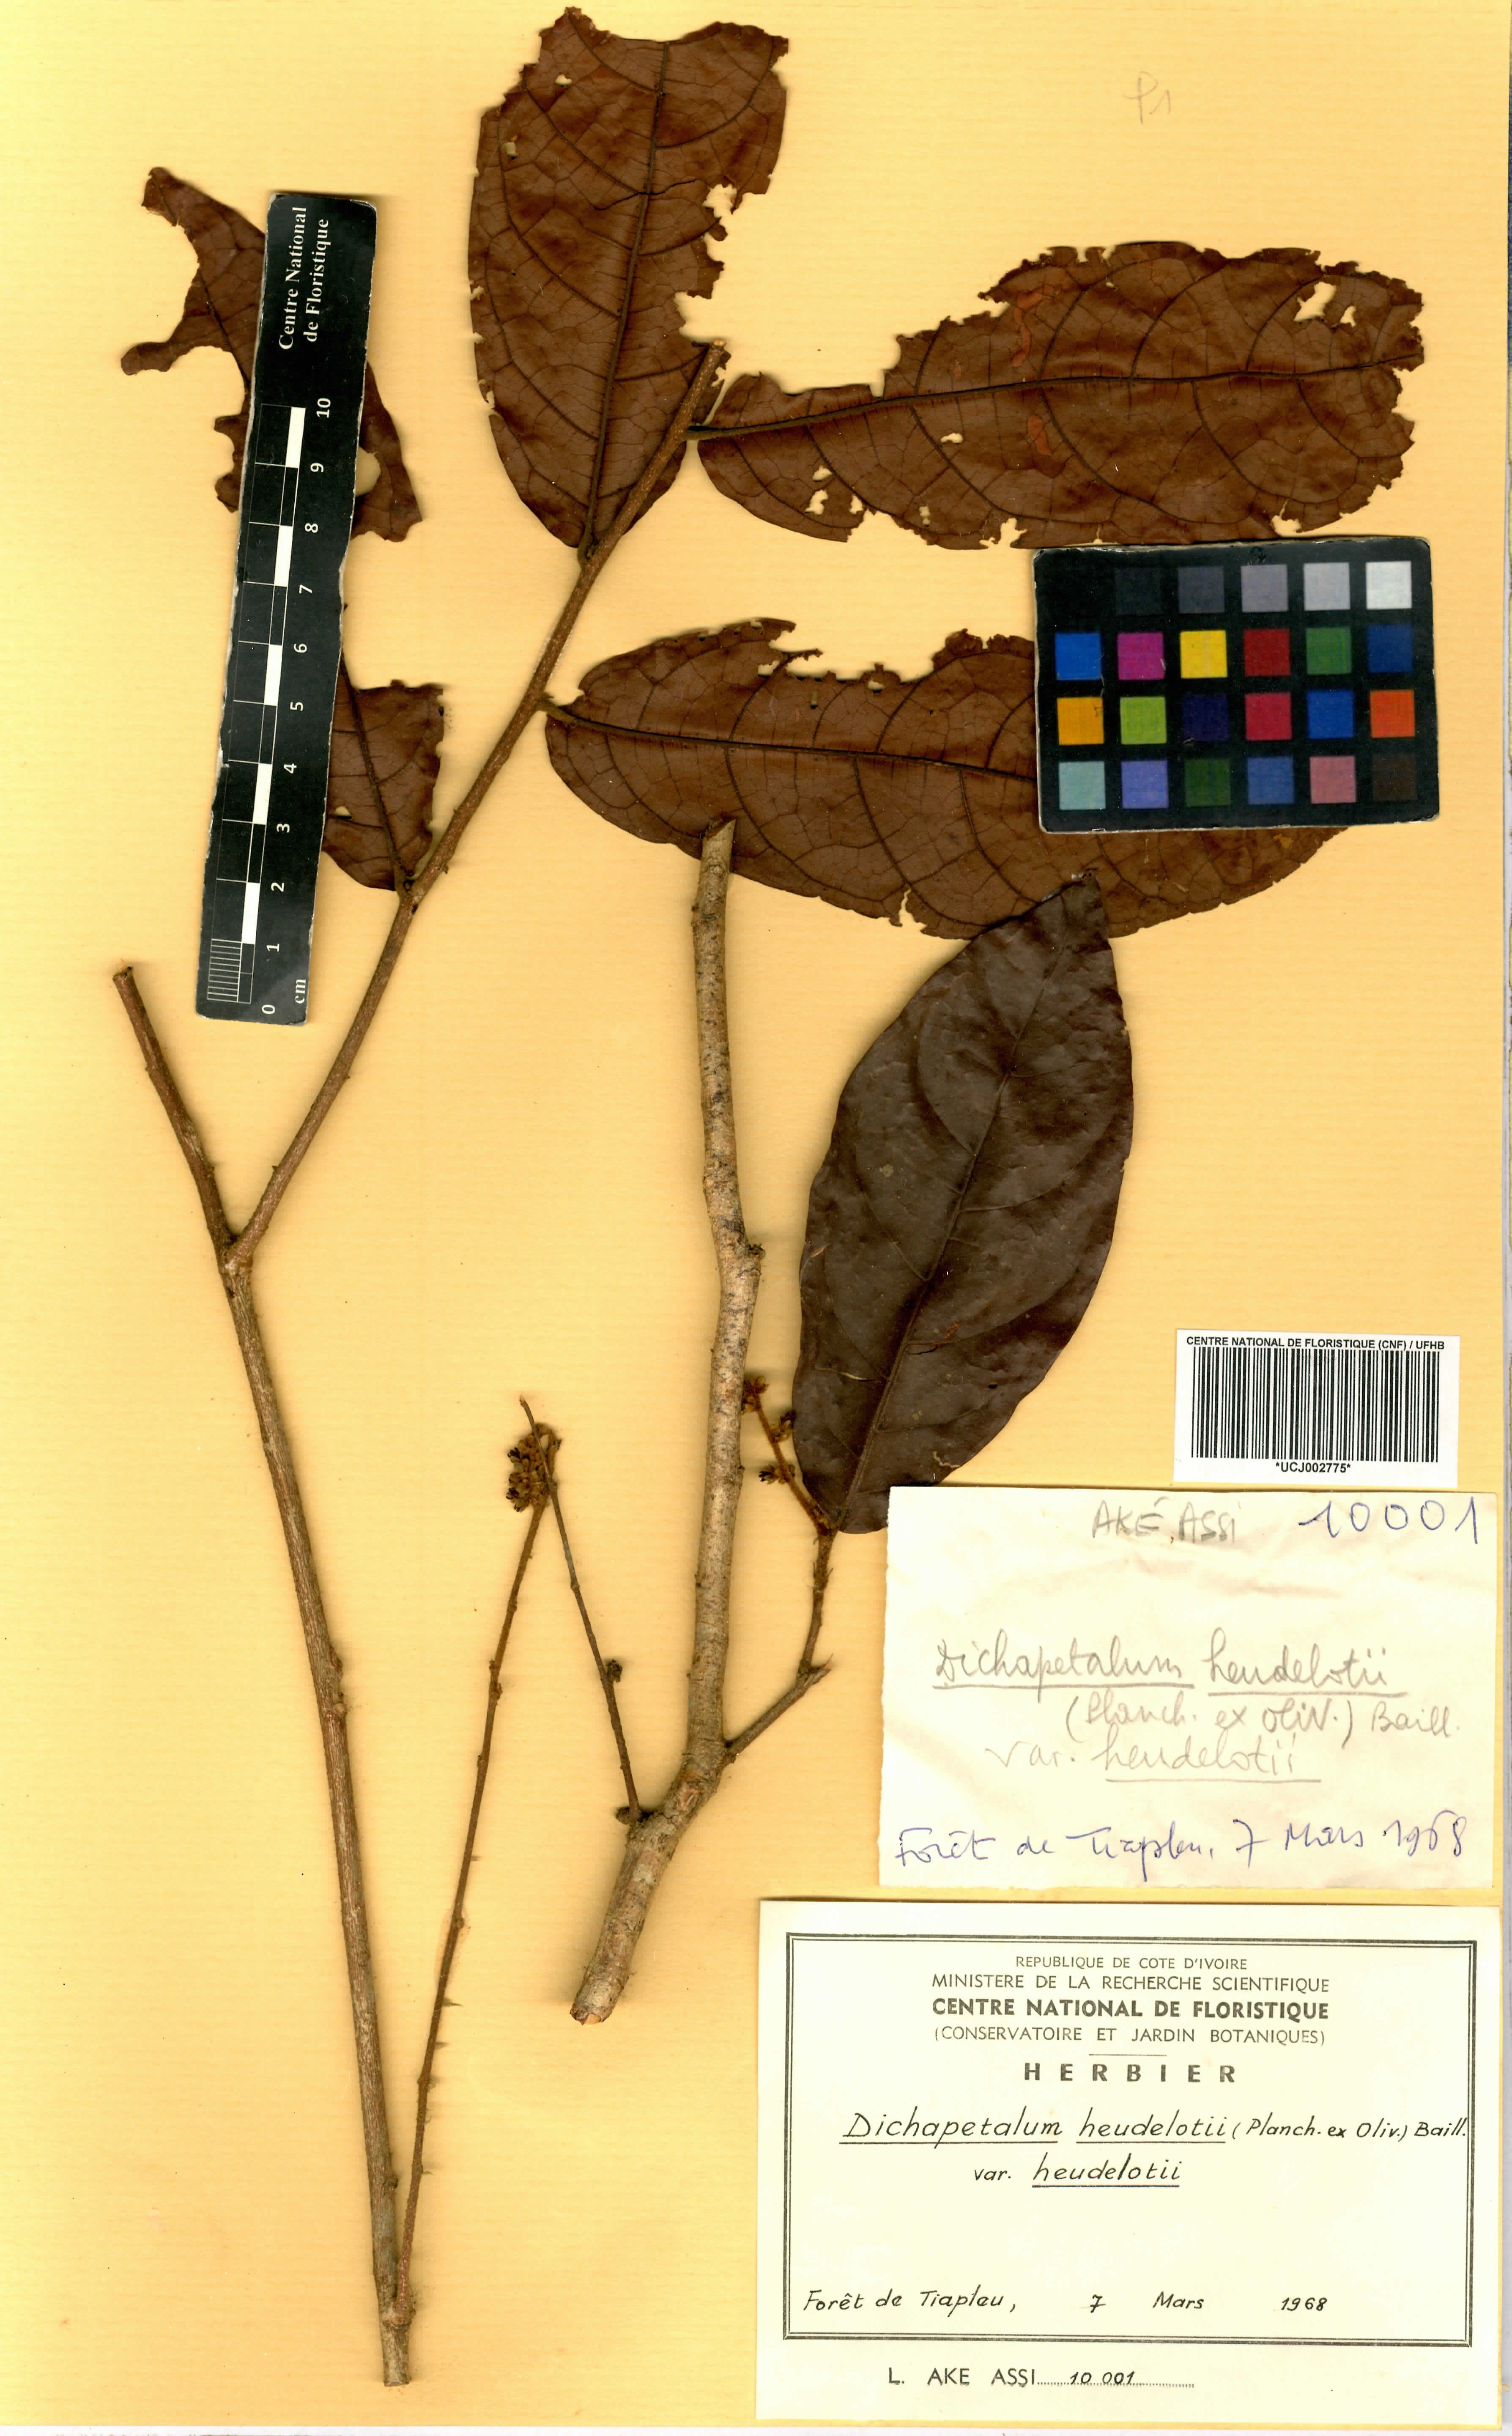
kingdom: Plantae
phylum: Tracheophyta
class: Magnoliopsida
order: Malpighiales
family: Dichapetalaceae
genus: Dichapetalum
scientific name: Dichapetalum heudelotii
